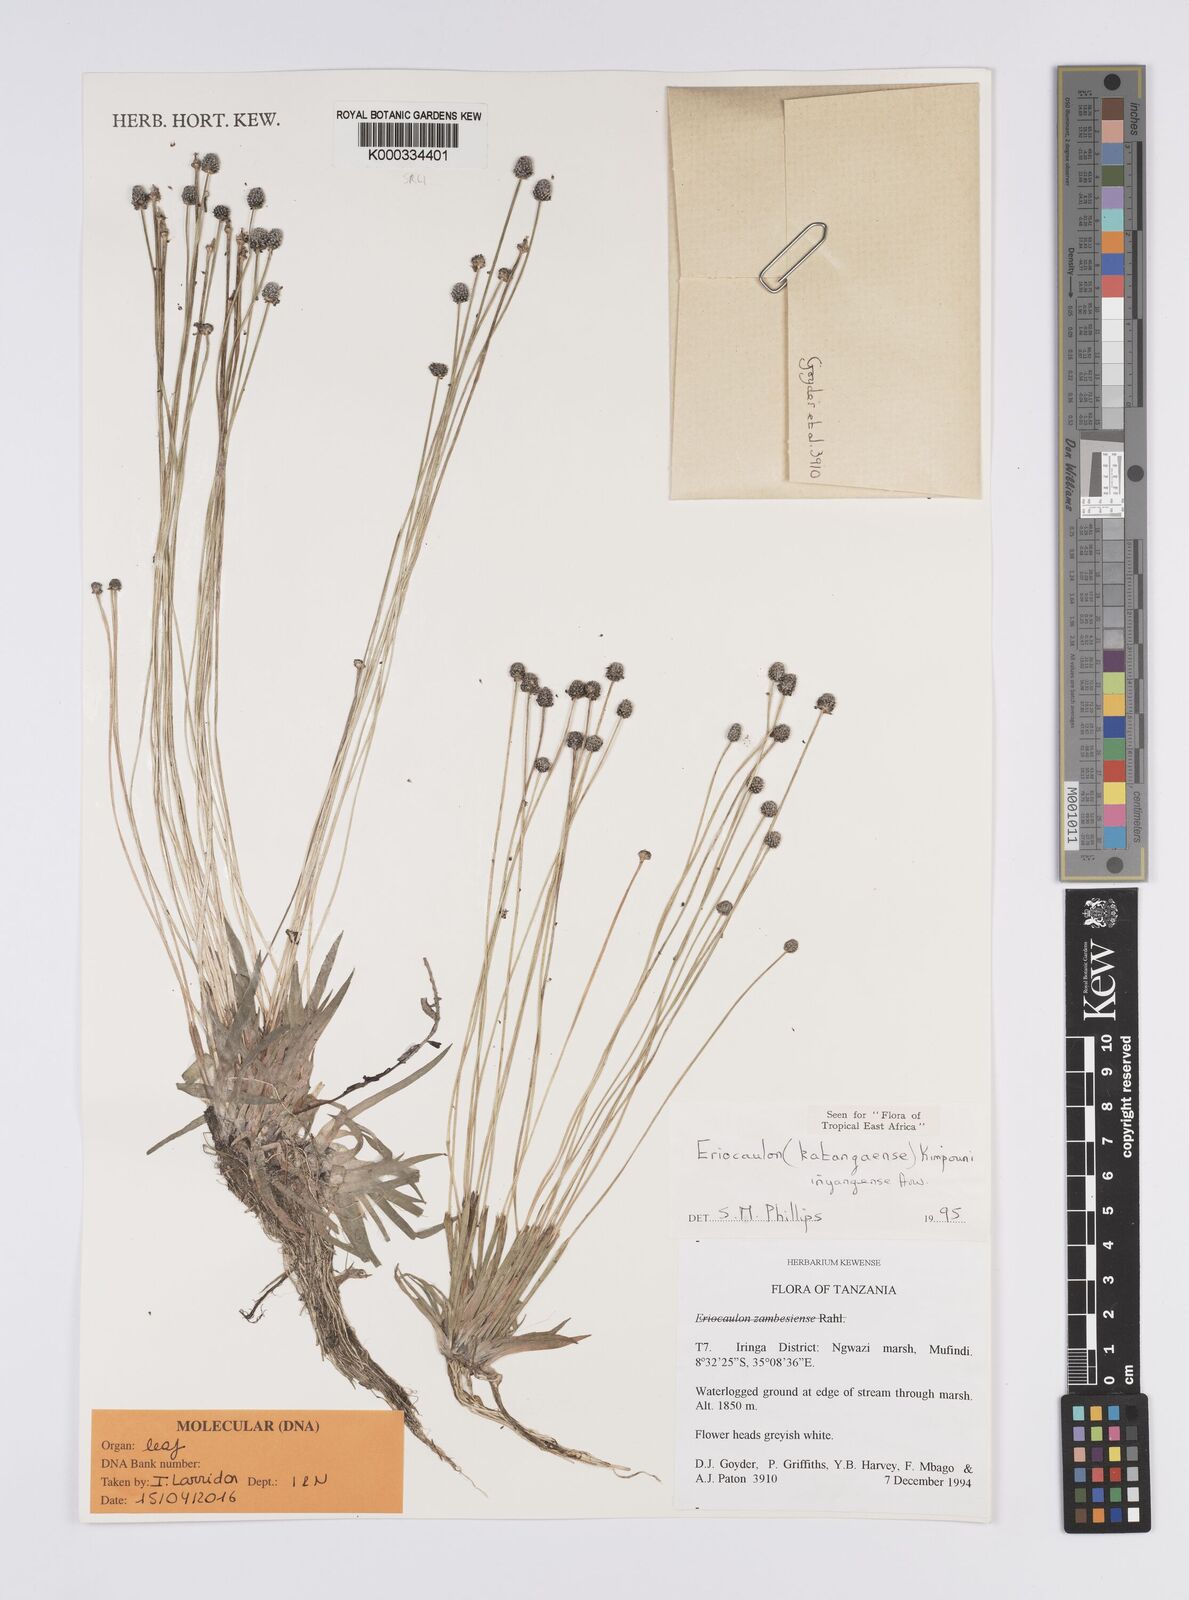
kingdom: Plantae
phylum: Tracheophyta
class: Liliopsida
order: Poales
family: Eriocaulaceae
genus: Eriocaulon
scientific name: Eriocaulon inyangense
